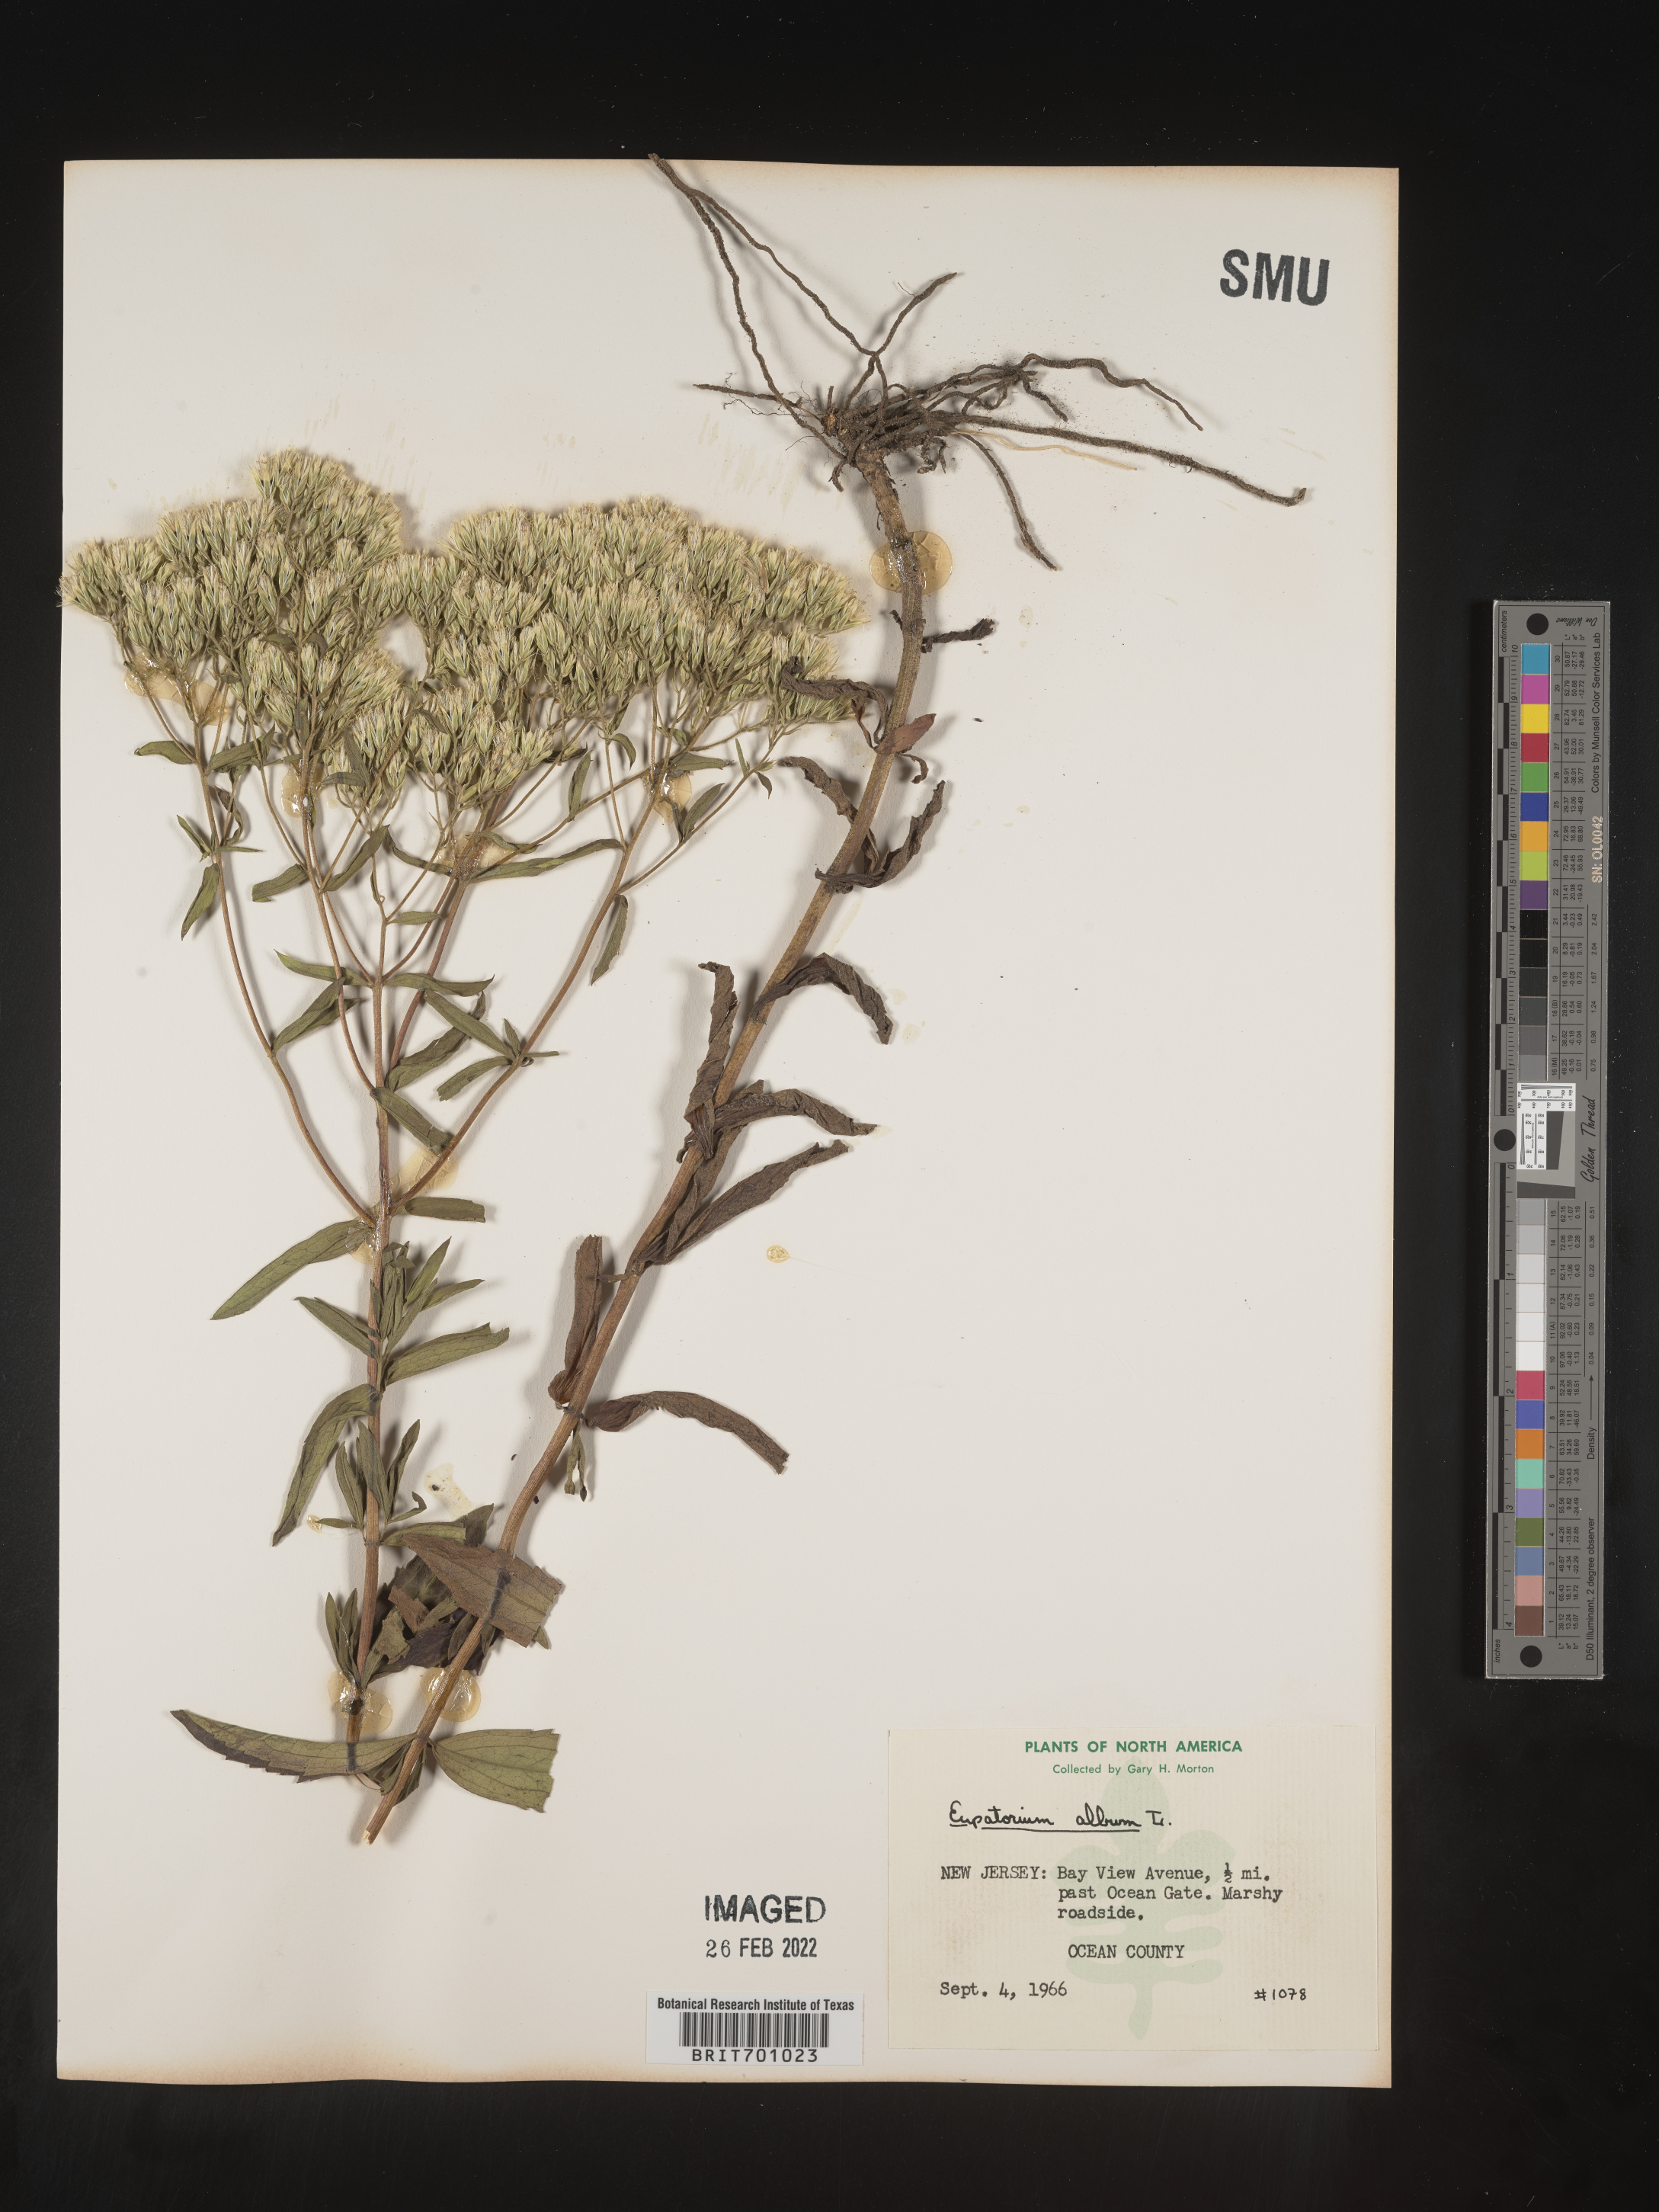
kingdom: Plantae
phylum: Tracheophyta
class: Magnoliopsida
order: Asterales
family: Asteraceae
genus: Eupatorium
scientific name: Eupatorium album
